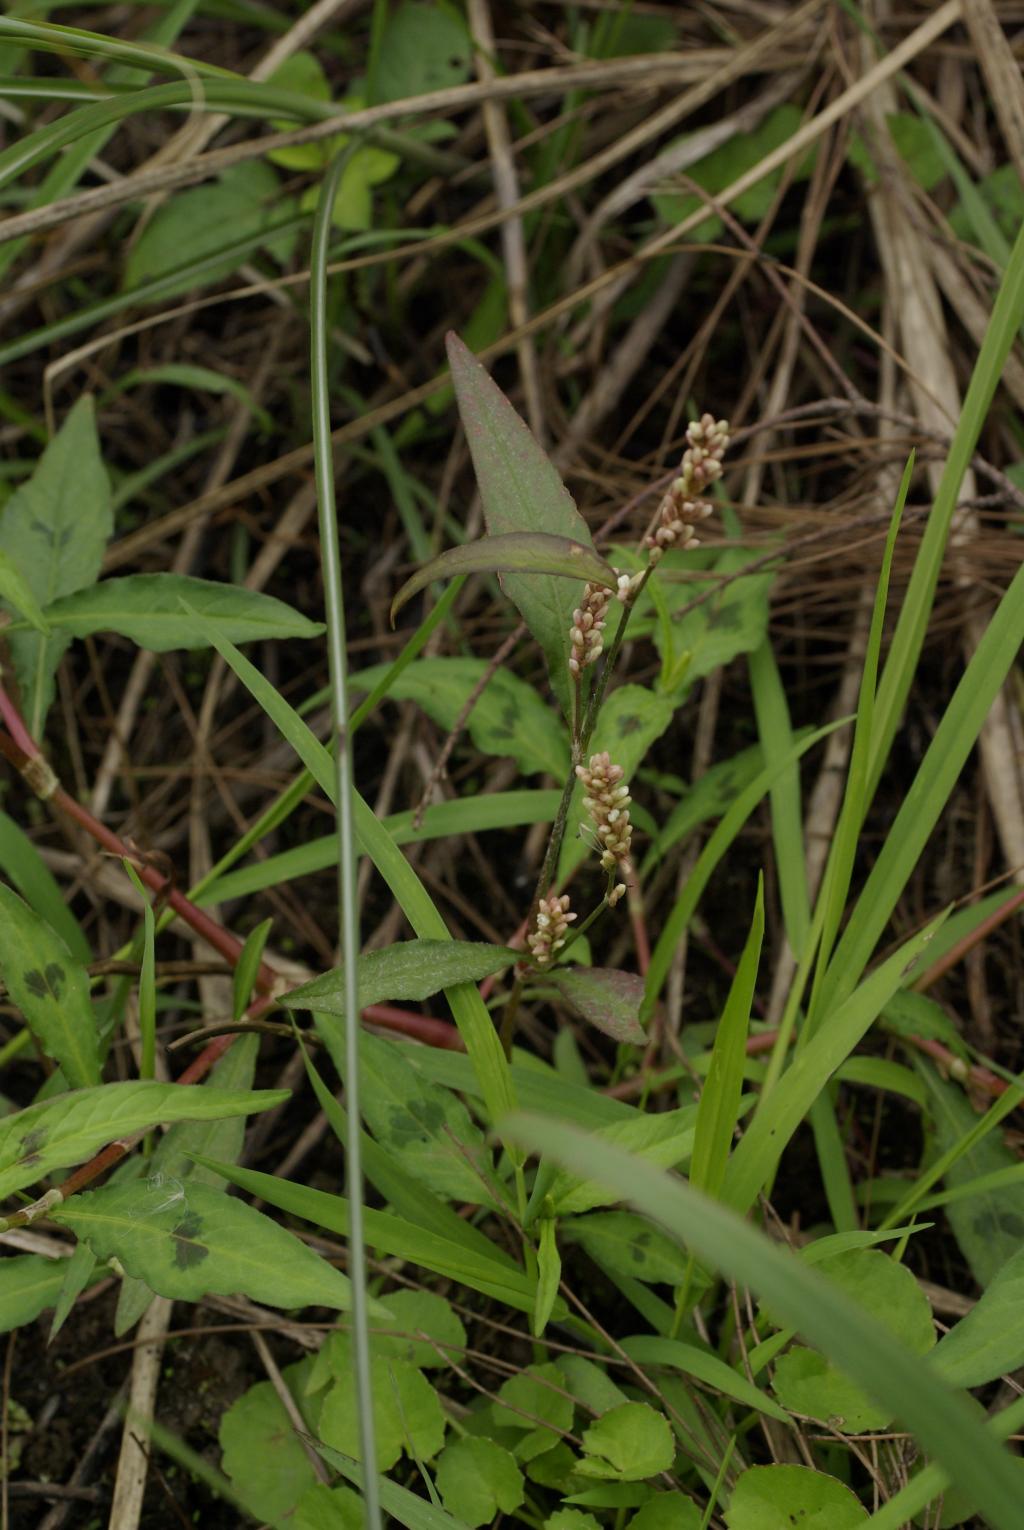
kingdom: Plantae
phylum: Tracheophyta
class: Magnoliopsida
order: Caryophyllales
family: Polygonaceae
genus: Persicaria
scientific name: Persicaria lapathifolia
